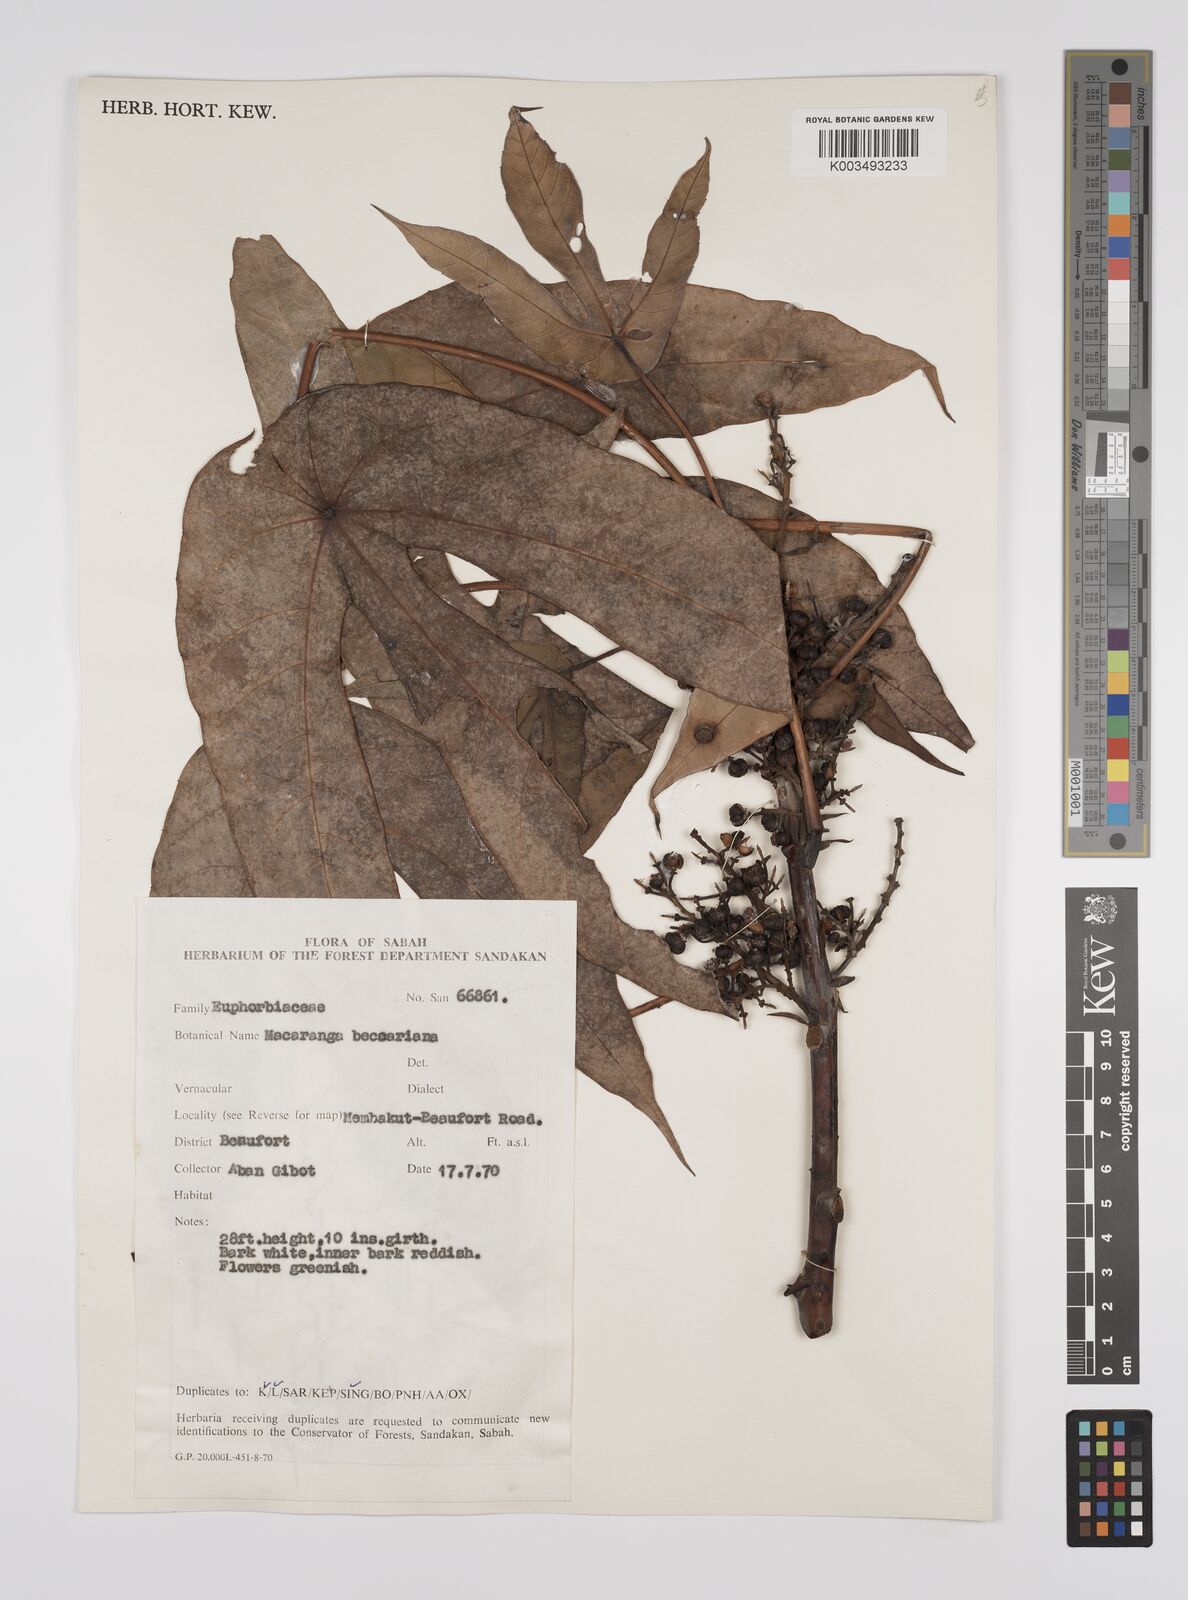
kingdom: Plantae
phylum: Tracheophyta
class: Magnoliopsida
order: Malpighiales
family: Euphorbiaceae
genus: Macaranga
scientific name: Macaranga beccariana
